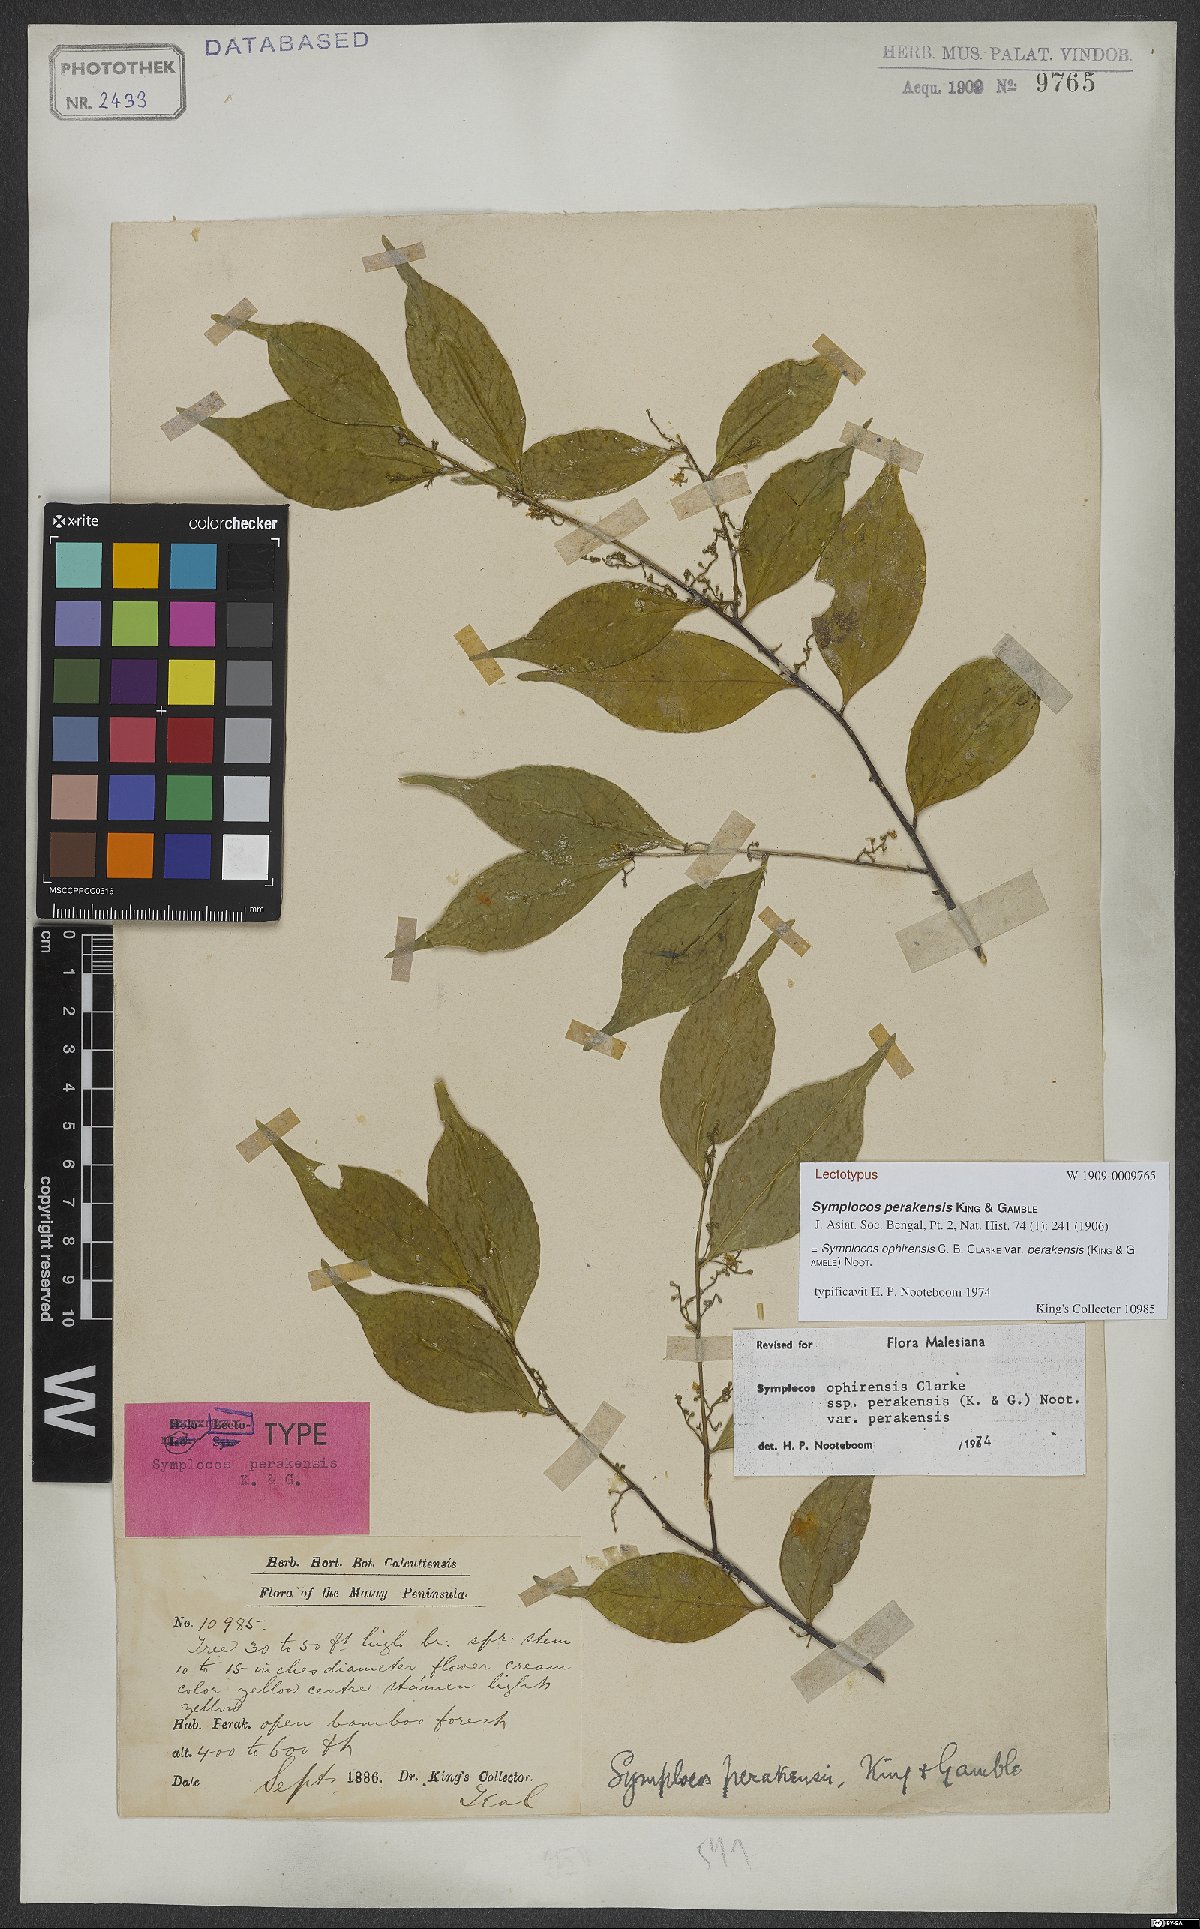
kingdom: Plantae
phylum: Tracheophyta
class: Magnoliopsida
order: Ericales
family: Symplocaceae
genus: Symplocos
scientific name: Symplocos ophirensis
